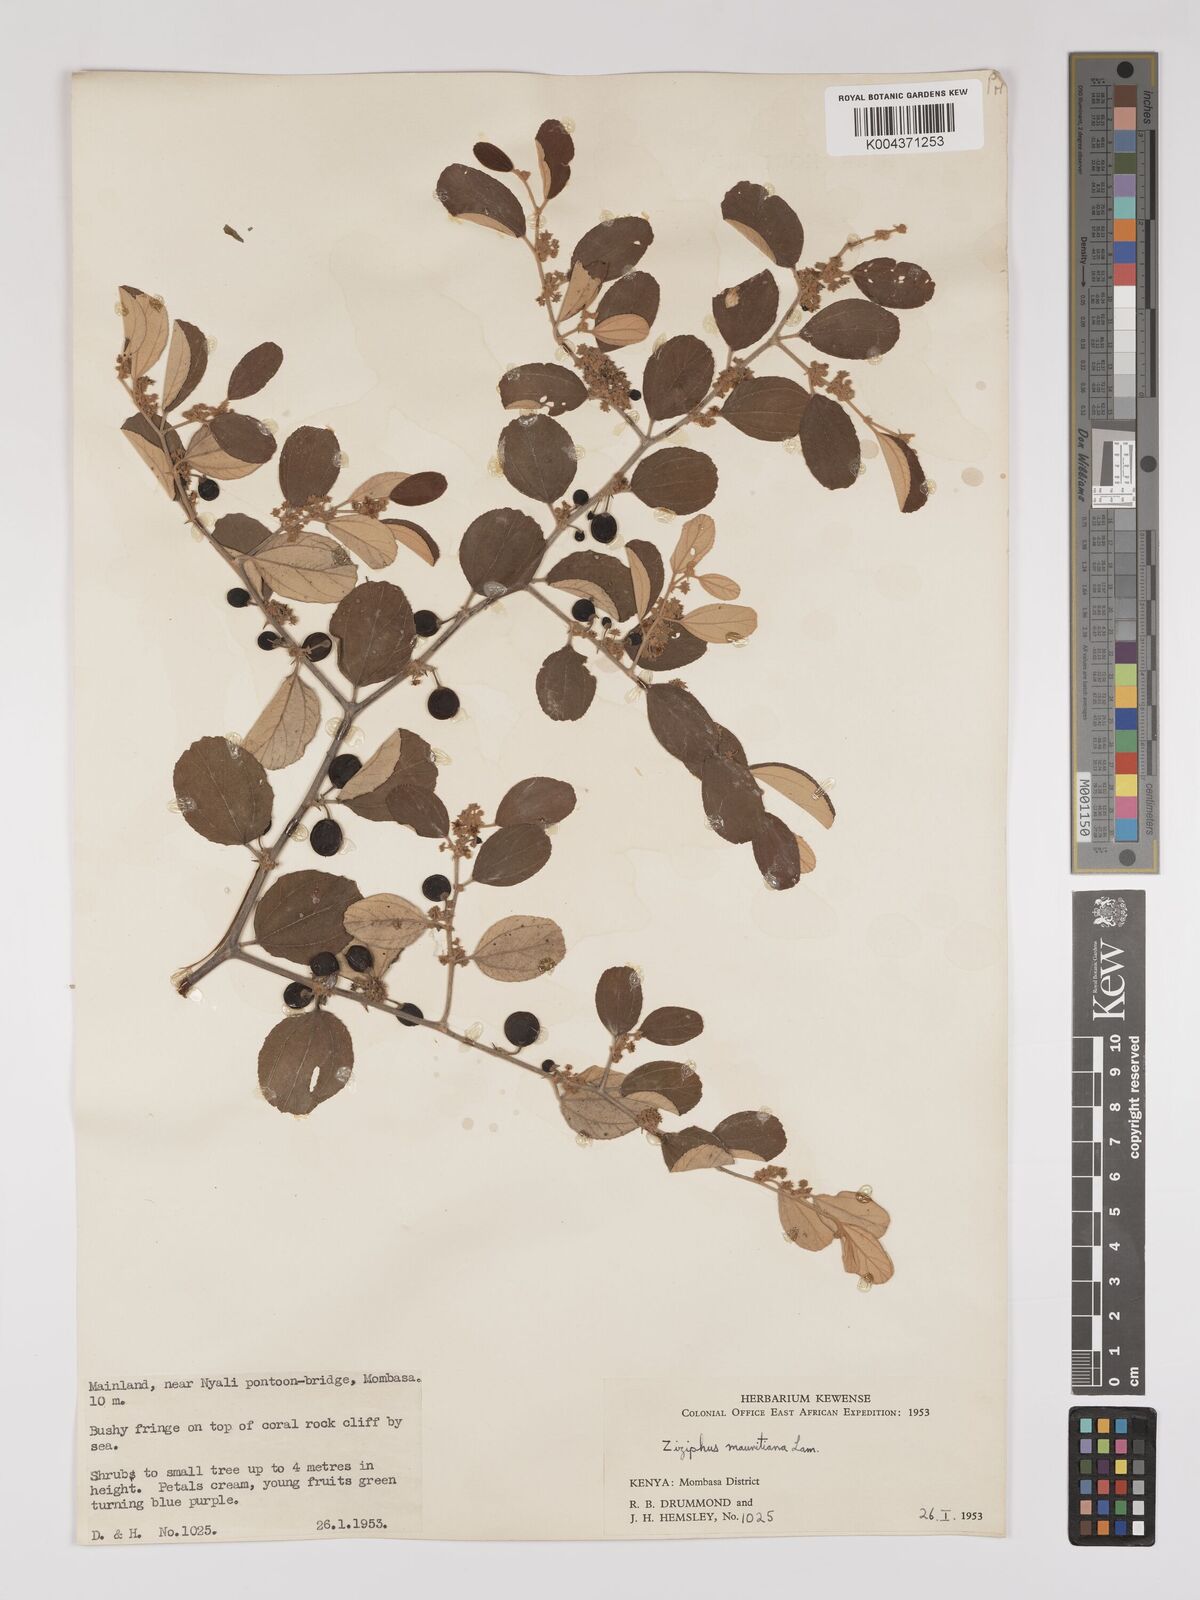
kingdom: Plantae
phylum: Tracheophyta
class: Magnoliopsida
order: Rosales
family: Rhamnaceae
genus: Ziziphus
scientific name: Ziziphus mauritiana
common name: Indian jujube
